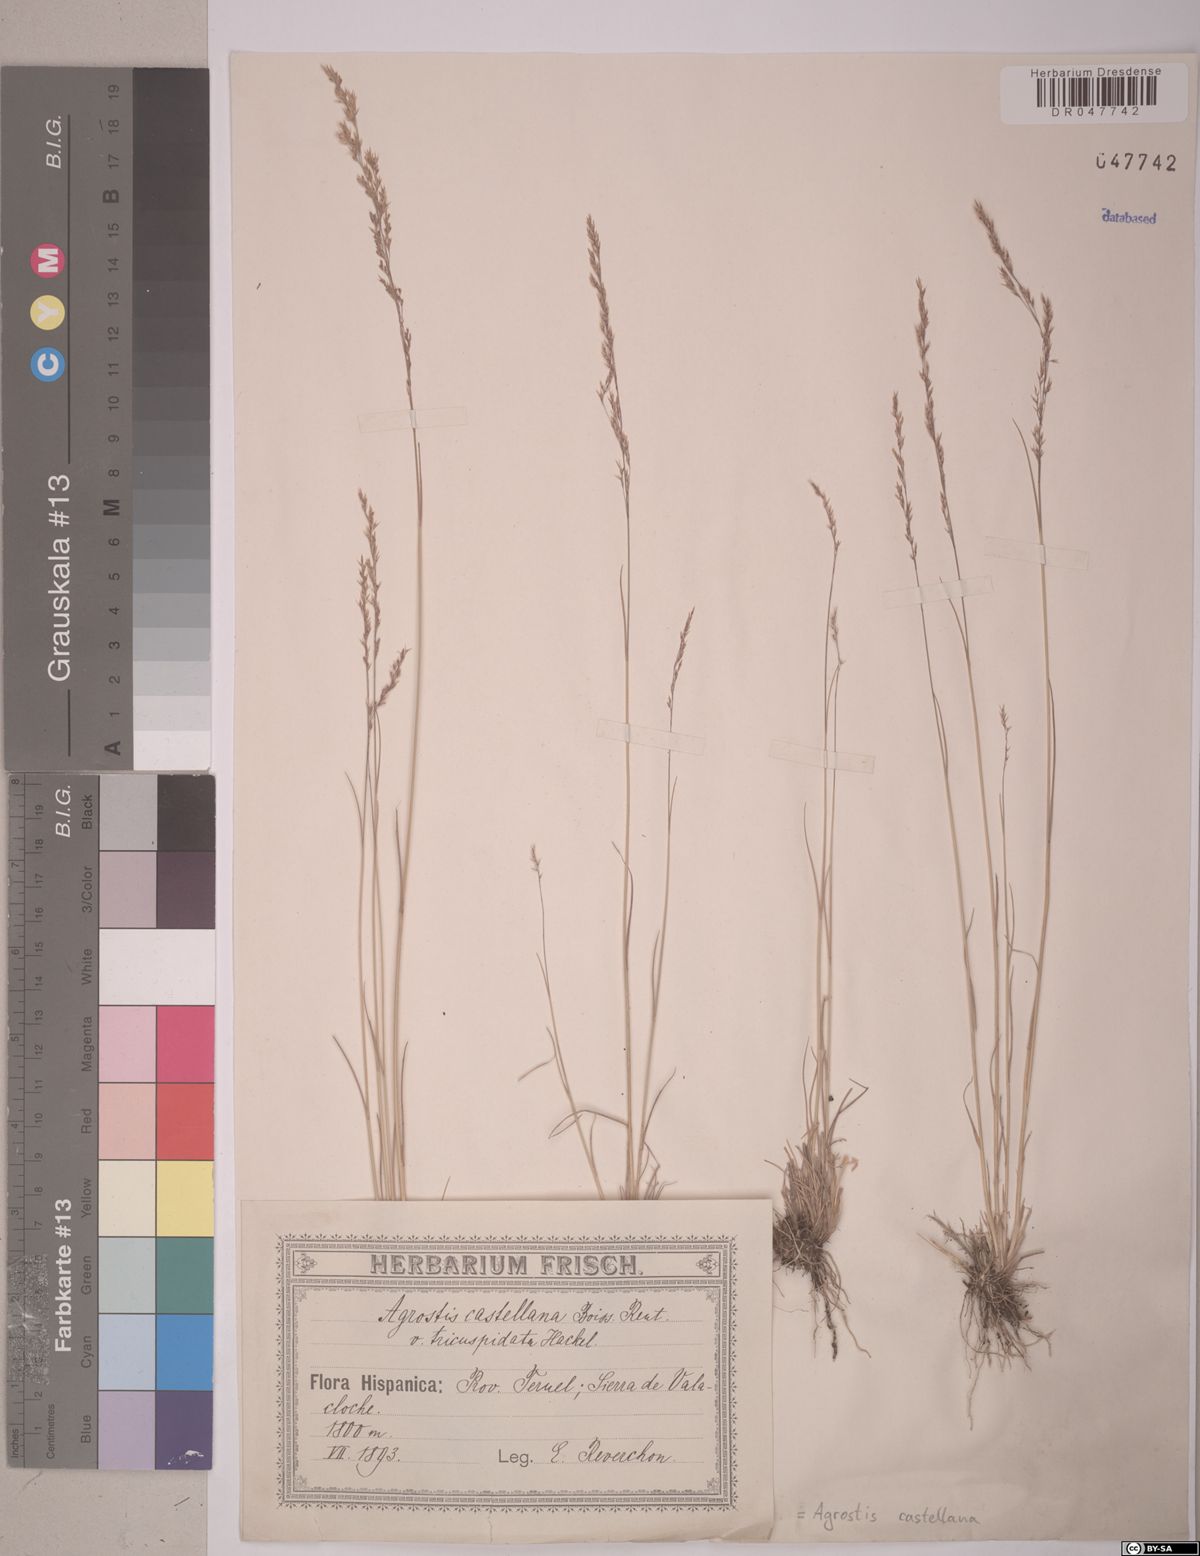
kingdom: Plantae
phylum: Tracheophyta
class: Liliopsida
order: Poales
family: Poaceae
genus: Agrostis
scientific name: Agrostis castellana
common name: Highland bent
